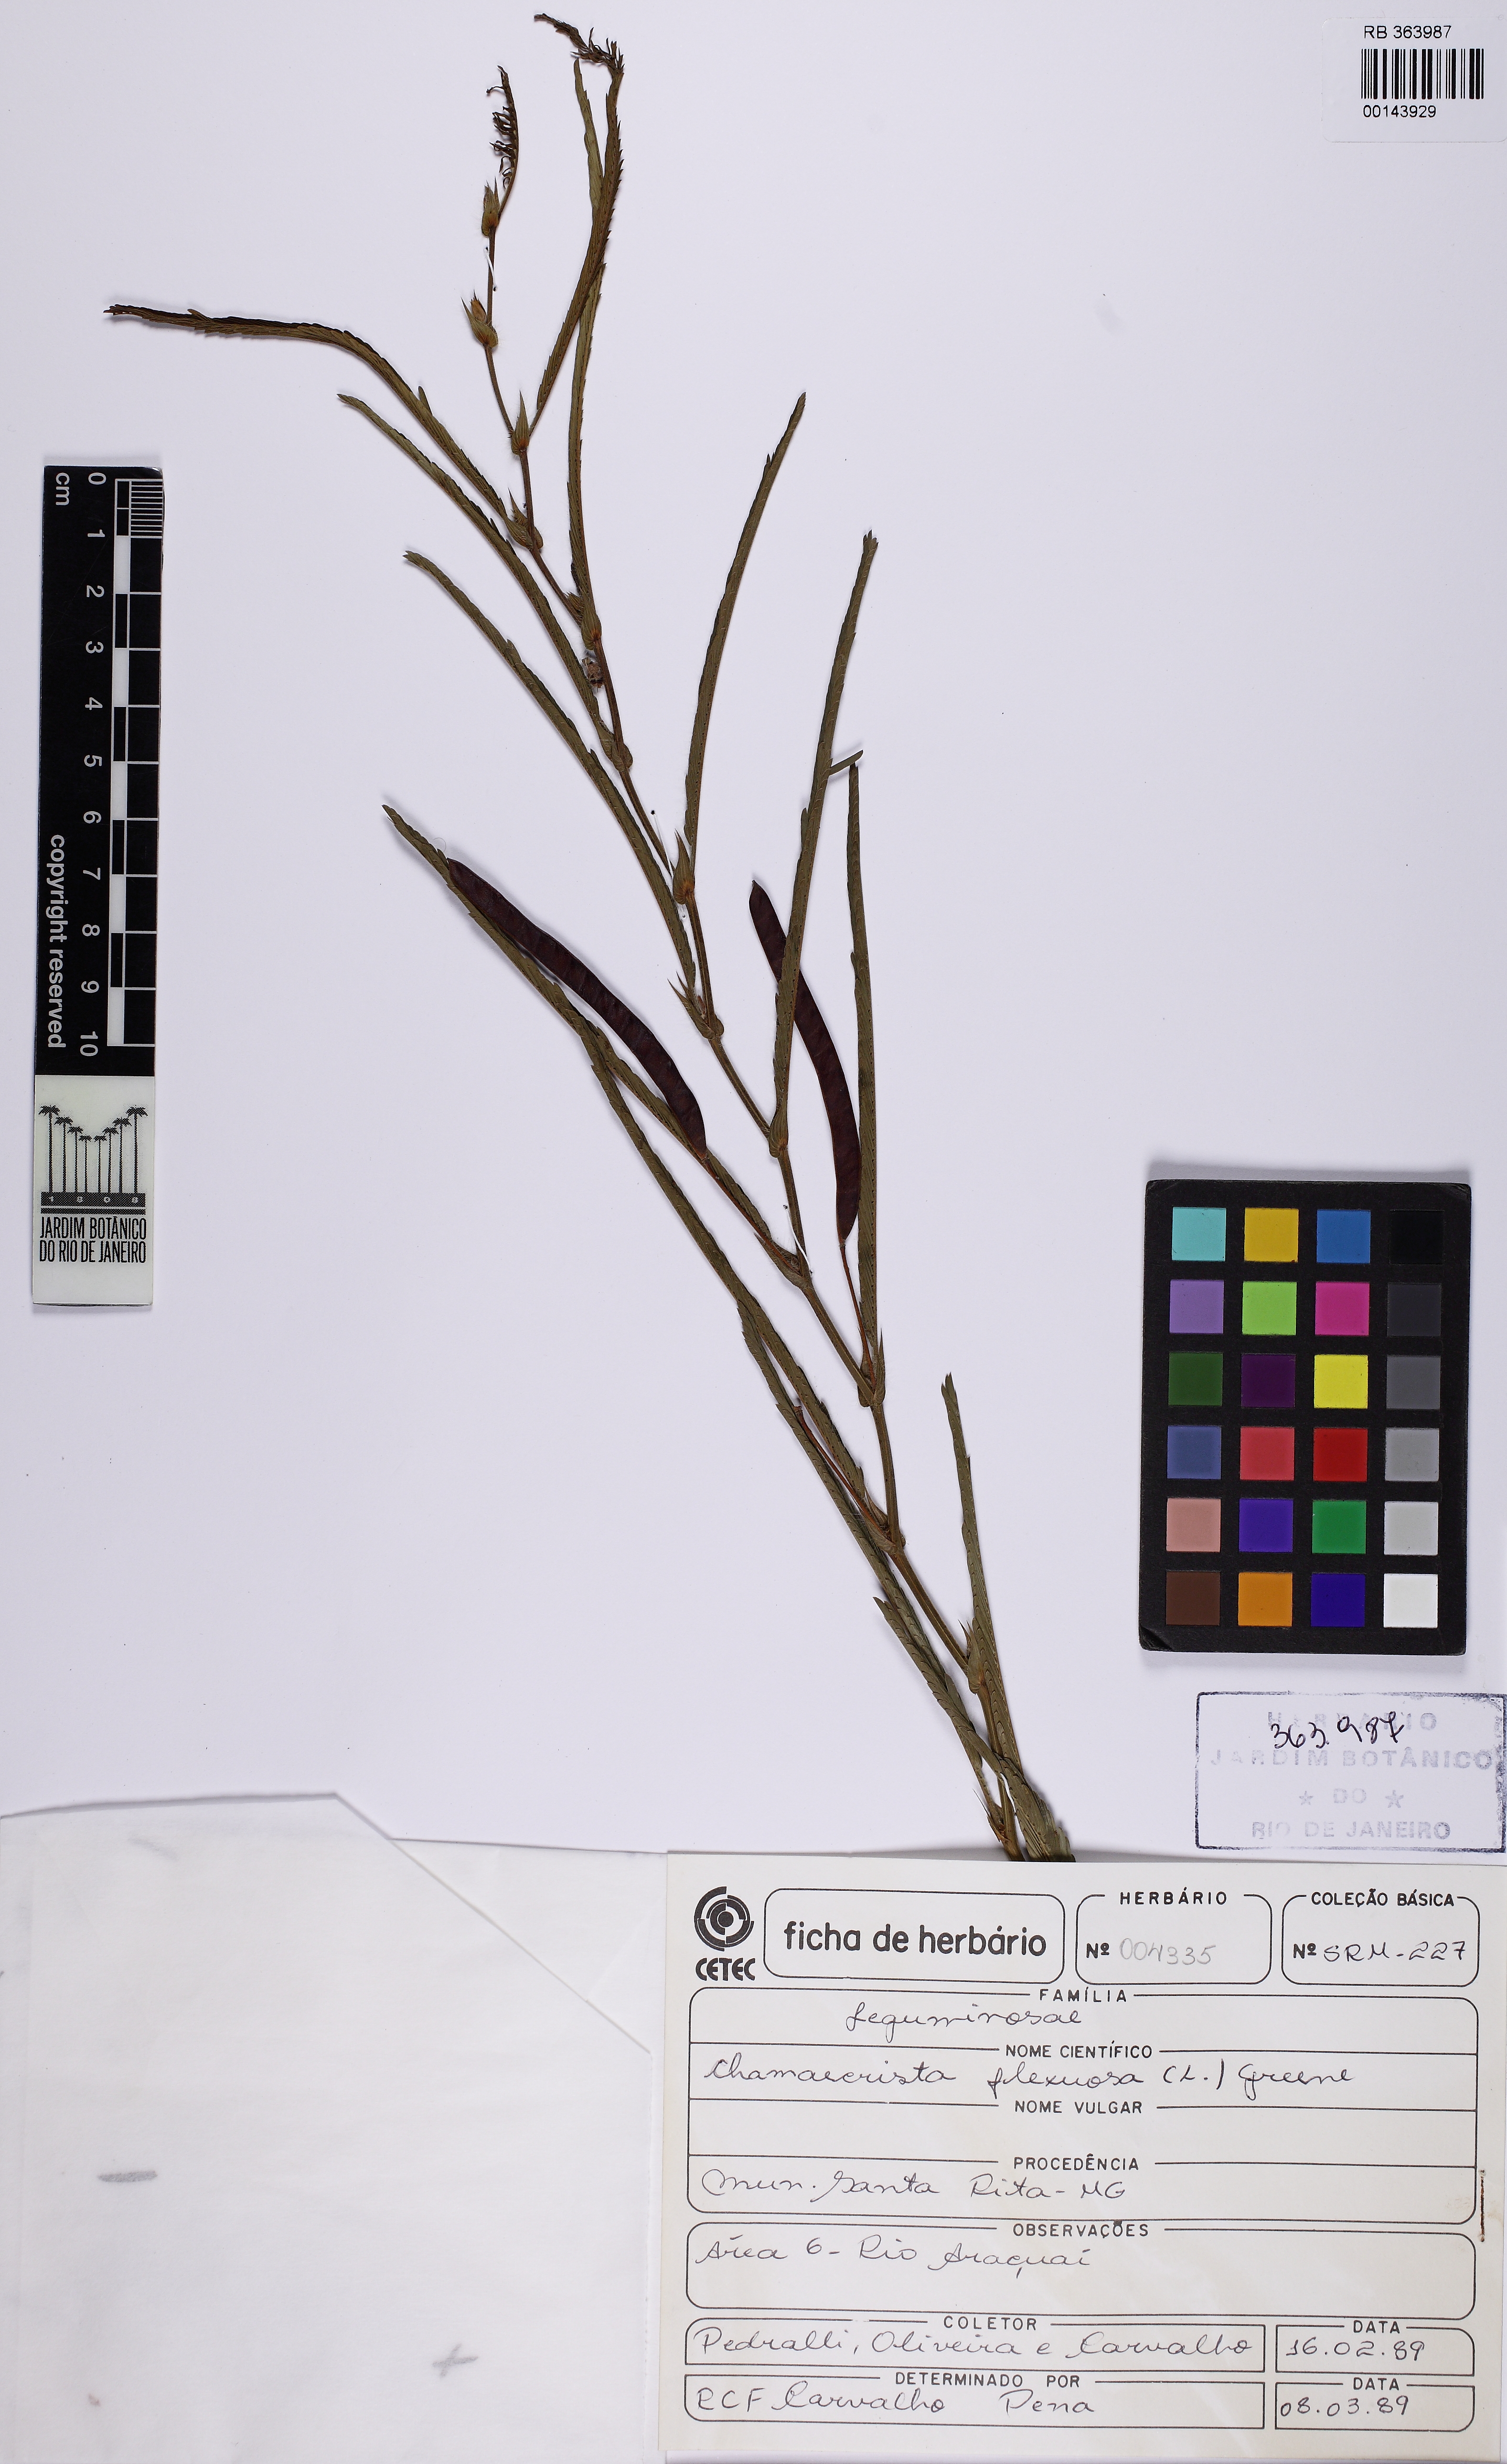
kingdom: Plantae
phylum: Tracheophyta
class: Magnoliopsida
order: Fabales
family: Fabaceae
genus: Chamaecrista
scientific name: Chamaecrista flexuosa
